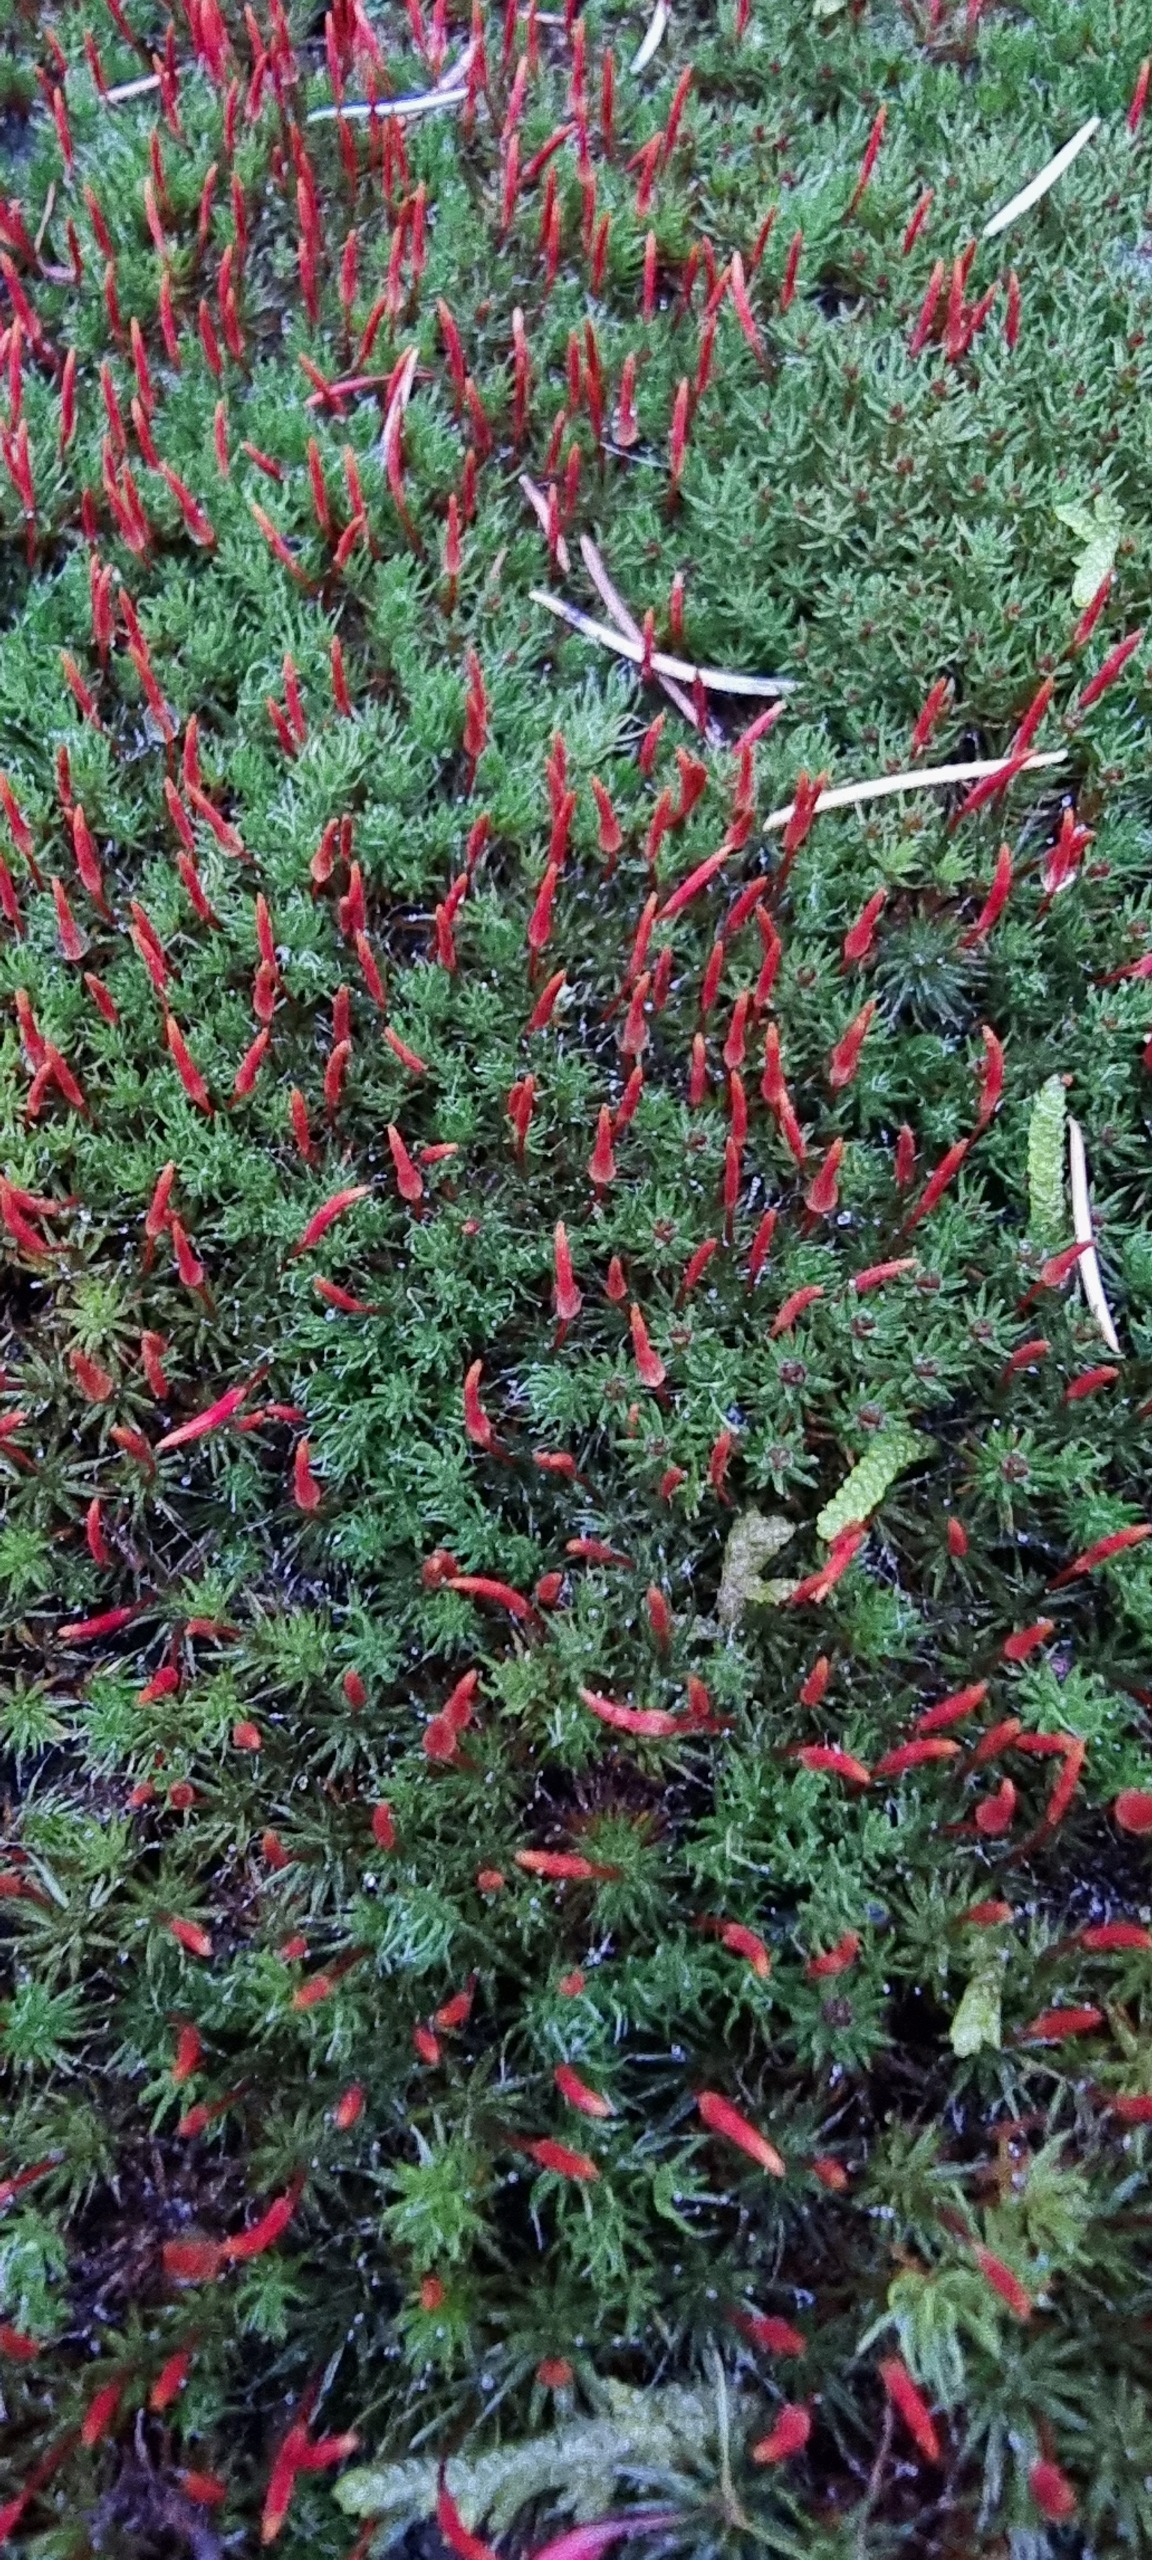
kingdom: Plantae
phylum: Bryophyta
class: Polytrichopsida
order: Polytrichales
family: Polytrichaceae
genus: Polytrichum
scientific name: Polytrichum piliferum
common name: Hårspidset jomfruhår
